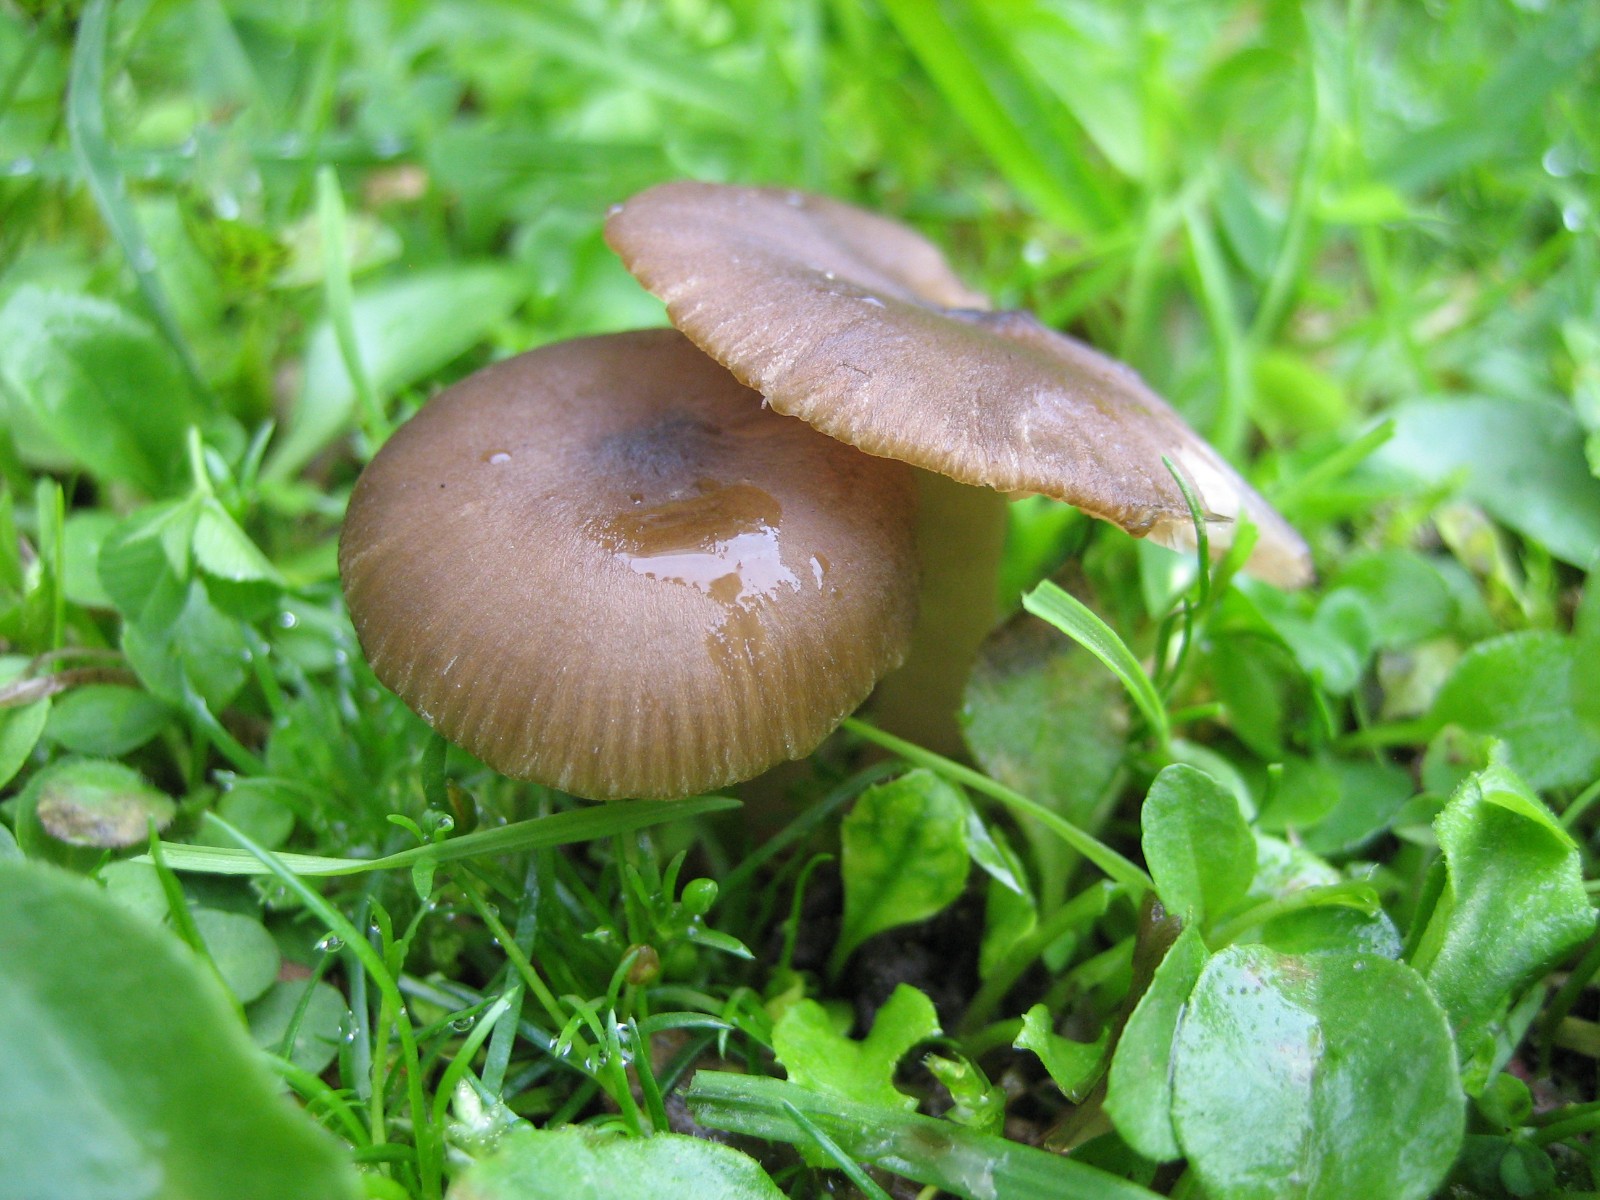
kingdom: Fungi
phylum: Basidiomycota
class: Agaricomycetes
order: Agaricales
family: Entolomataceae
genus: Entoloma
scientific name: Entoloma
